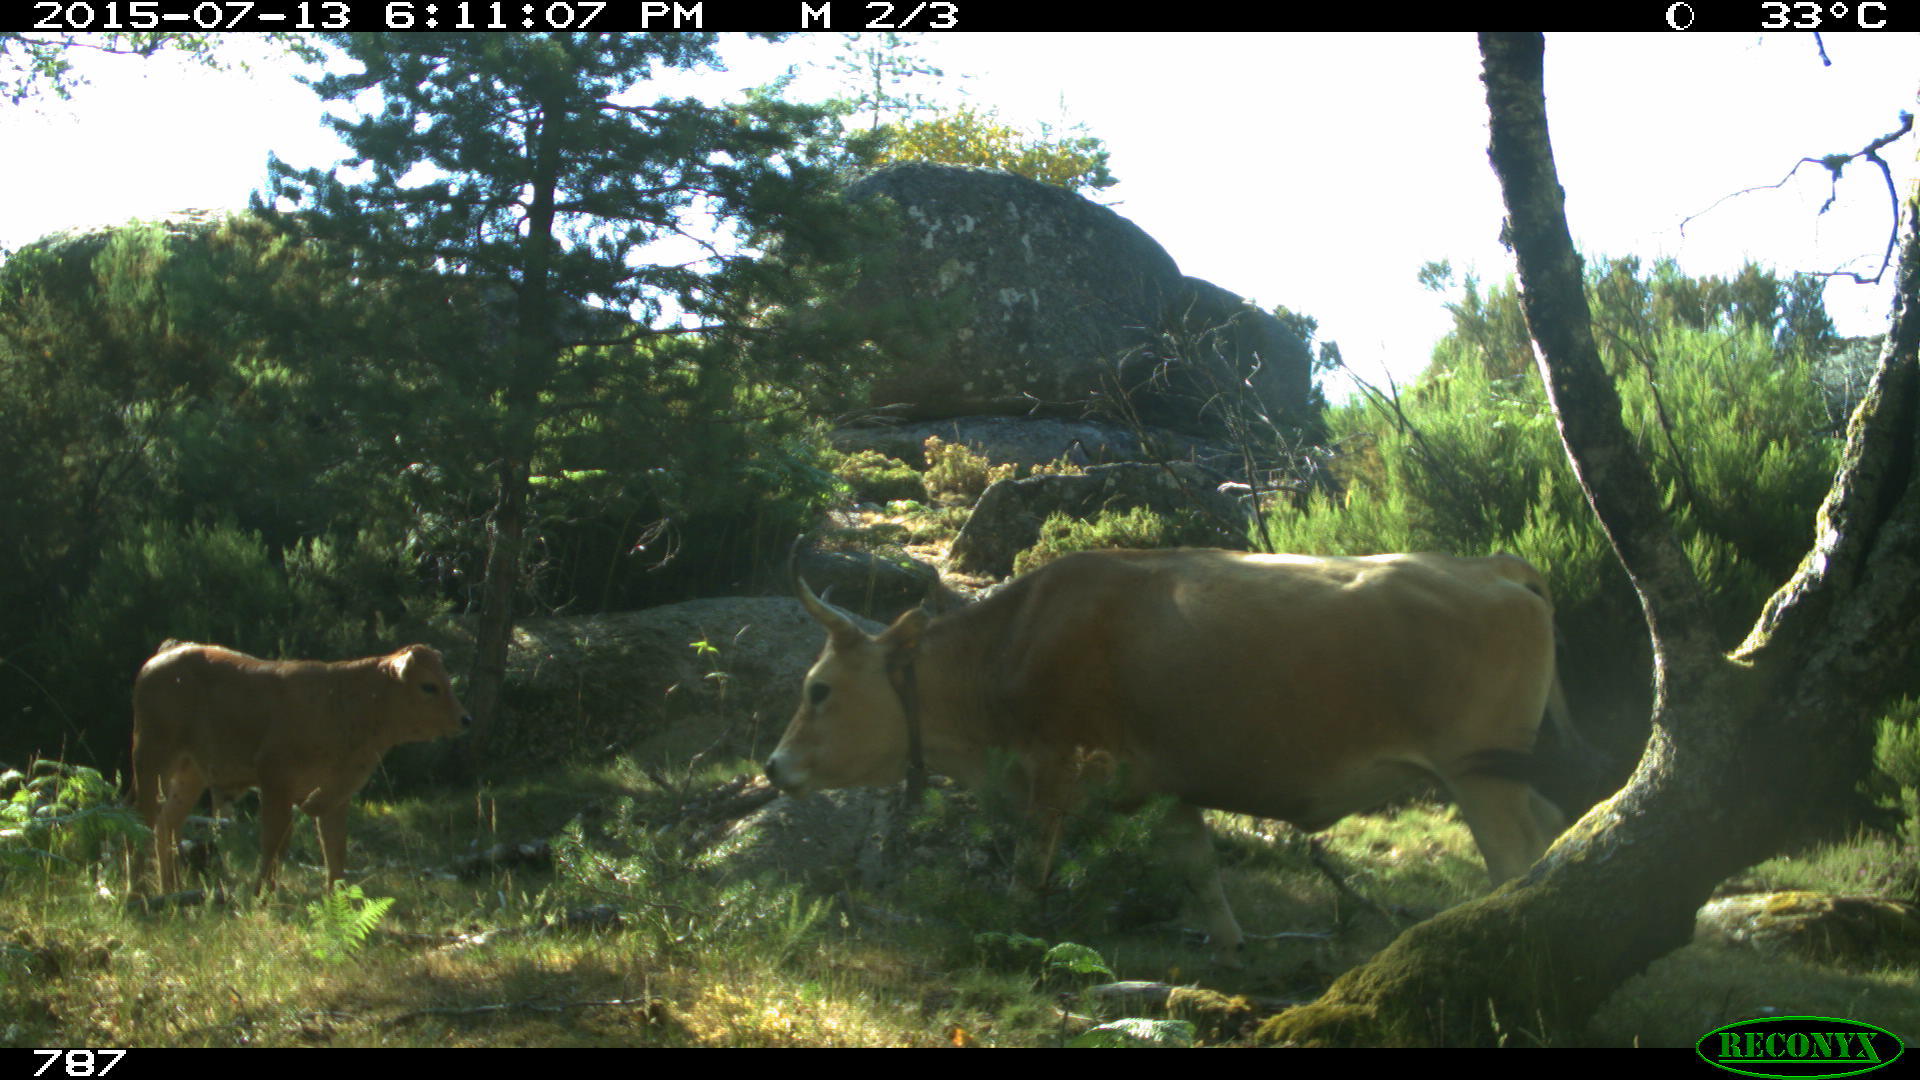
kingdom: Animalia
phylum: Chordata
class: Mammalia
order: Artiodactyla
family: Bovidae
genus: Bos
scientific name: Bos taurus
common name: Domesticated cattle
